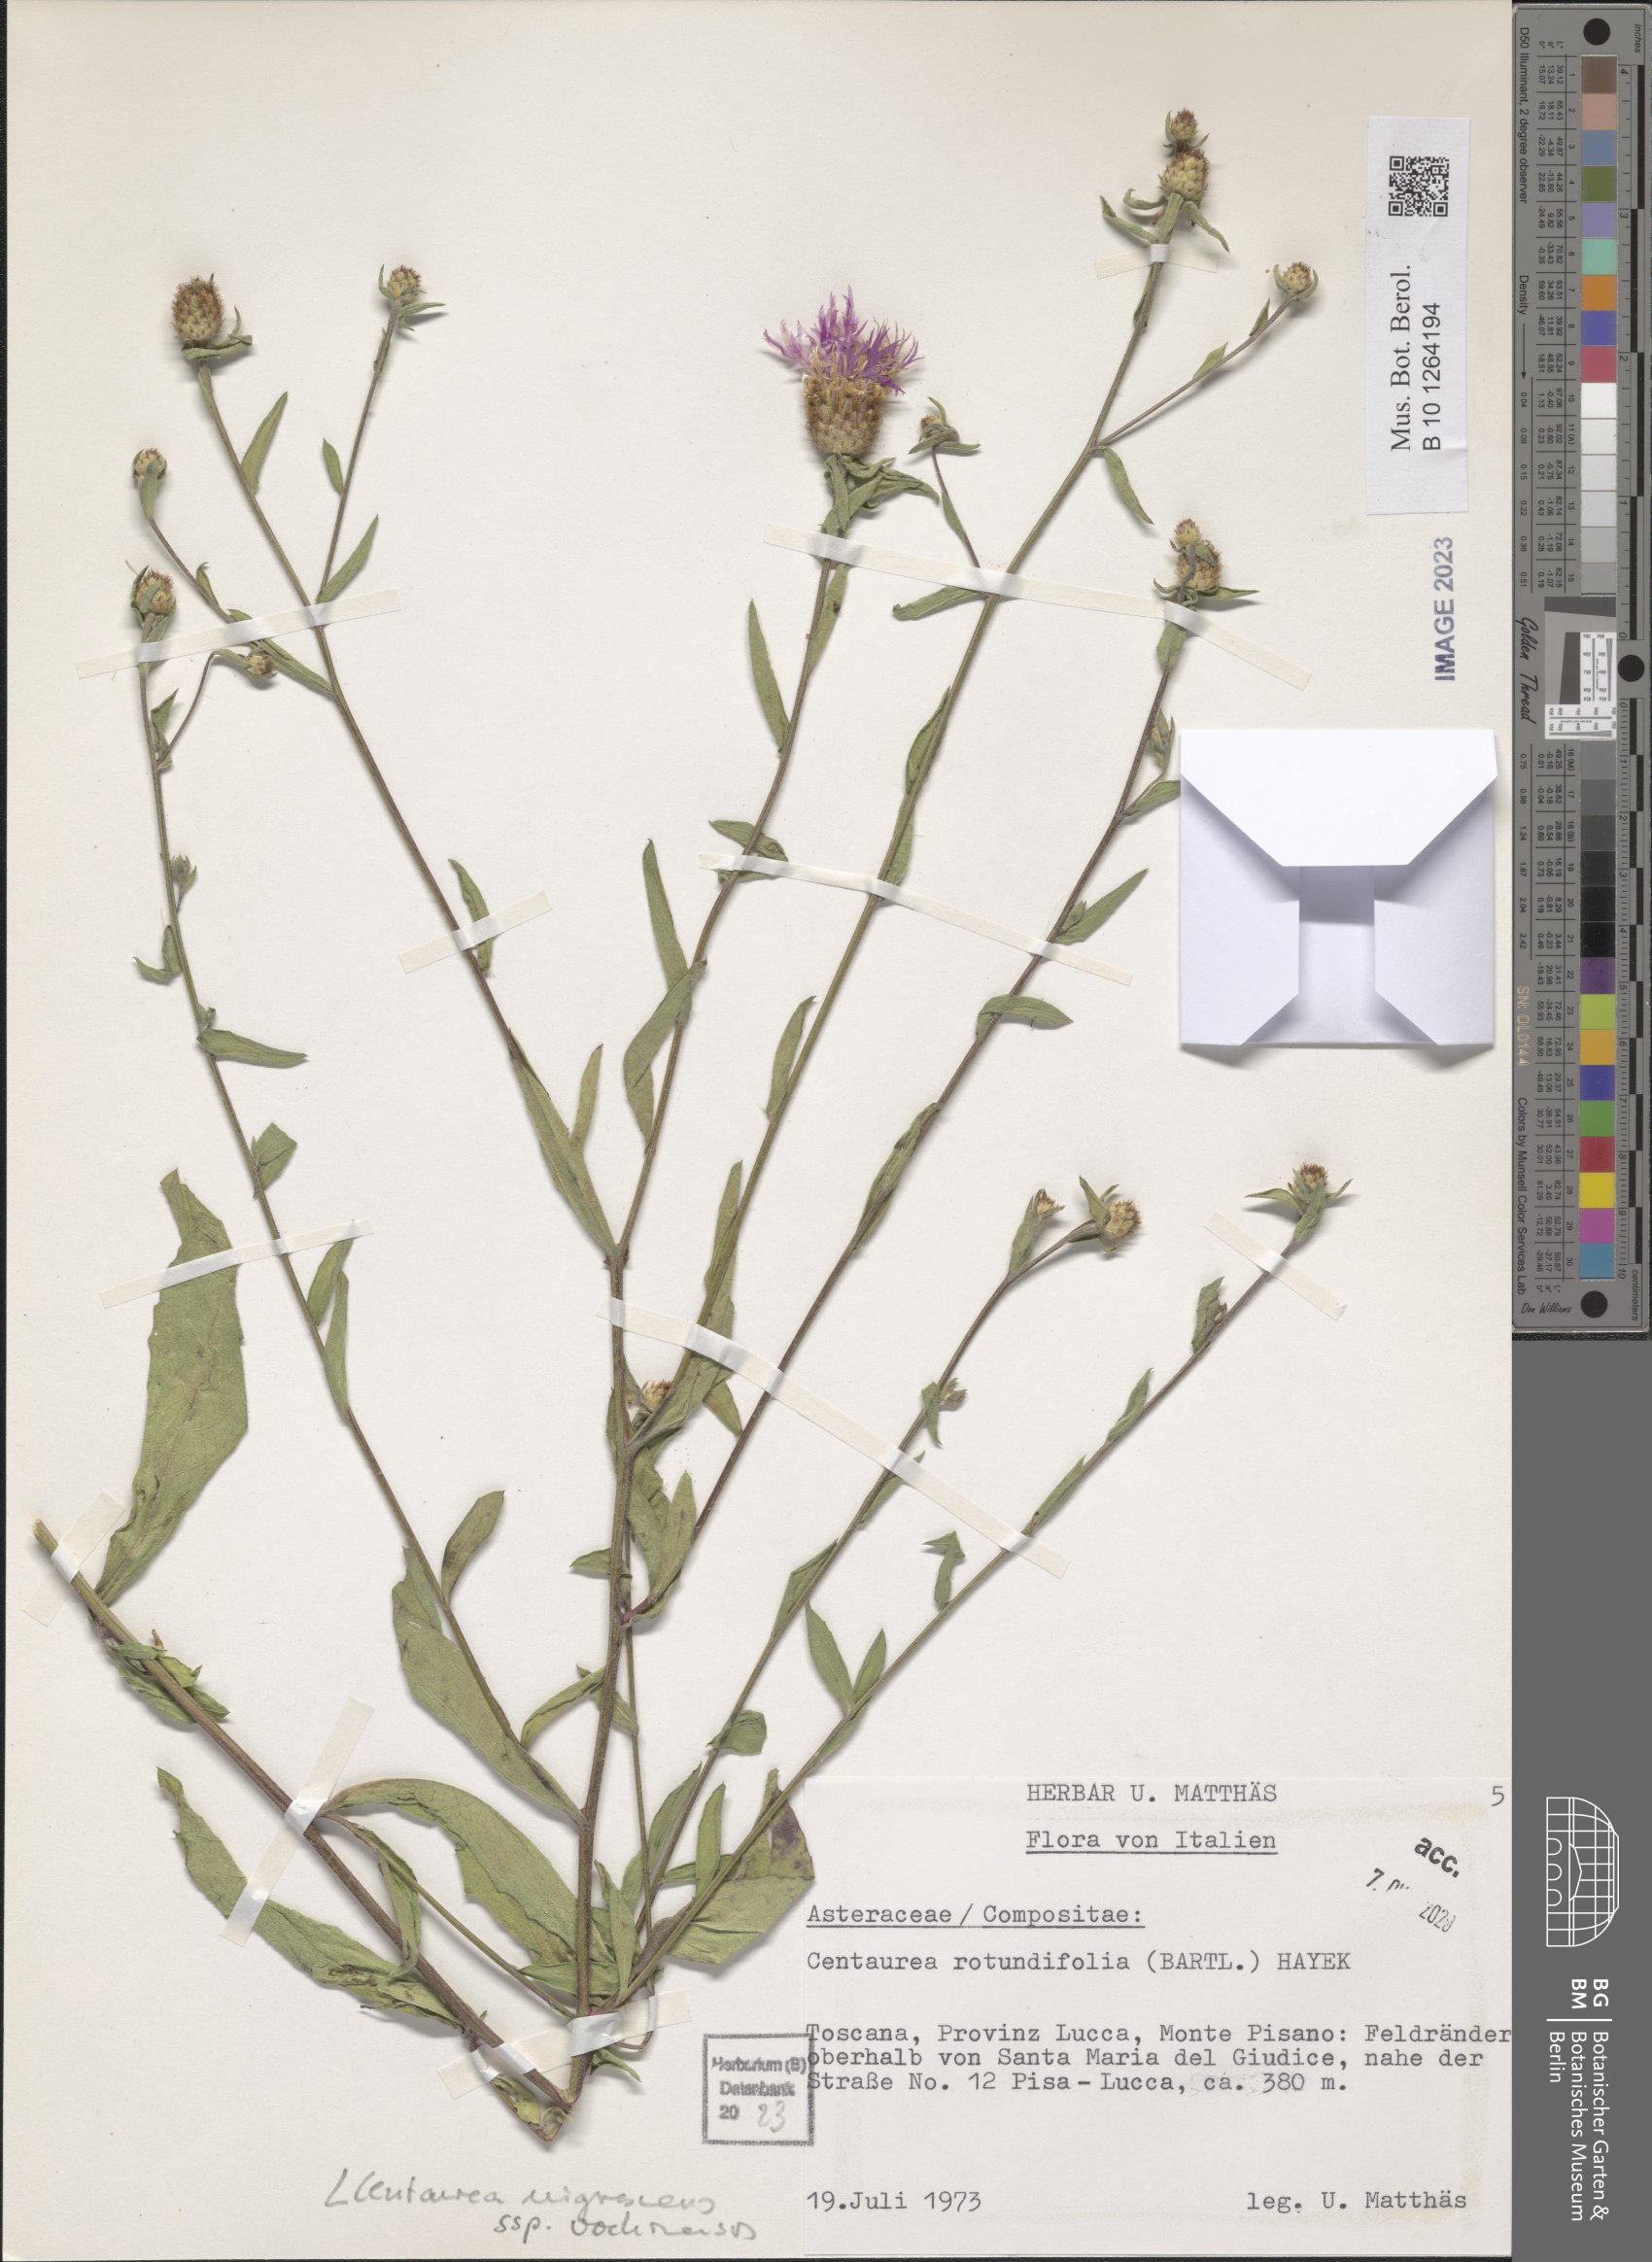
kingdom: Plantae
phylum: Tracheophyta
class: Magnoliopsida
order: Asterales
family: Asteraceae
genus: Centaurea
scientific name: Centaurea carniolica
